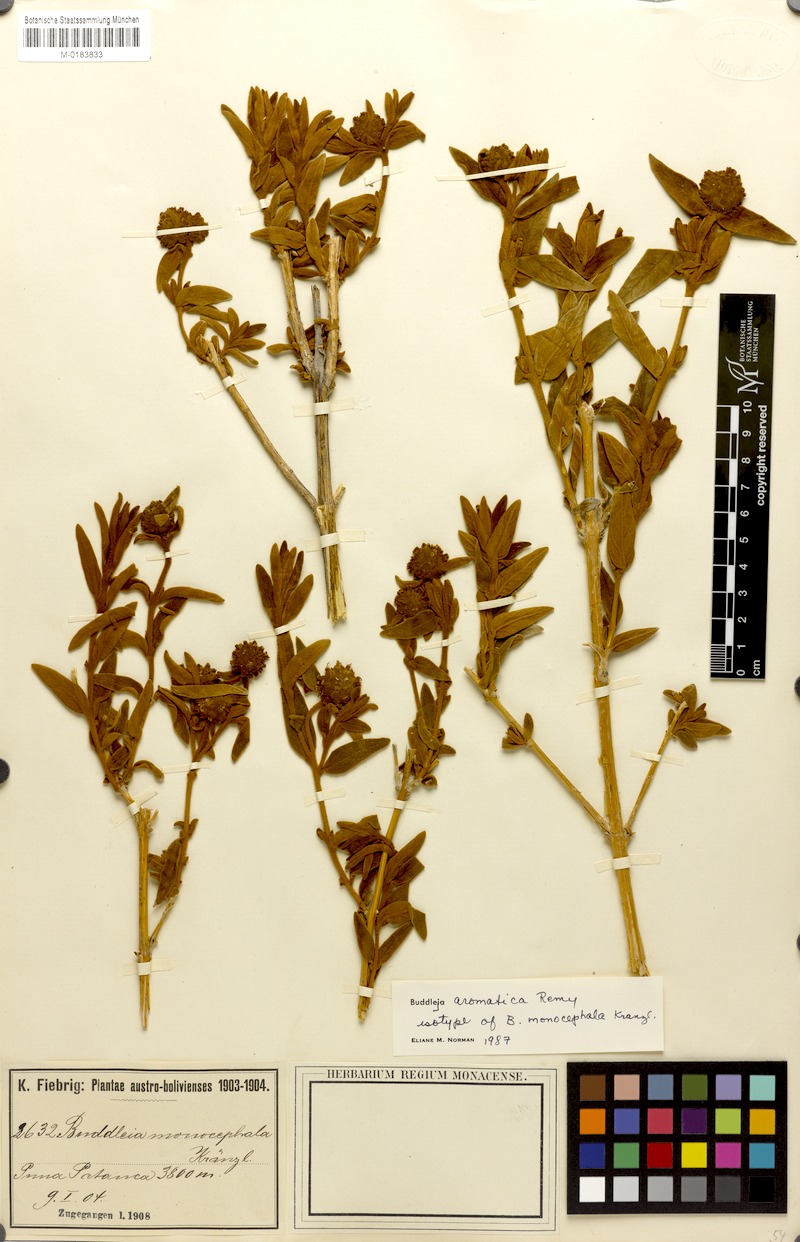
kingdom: Plantae
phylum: Tracheophyta
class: Magnoliopsida
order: Lamiales
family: Scrophulariaceae
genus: Buddleja
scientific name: Buddleja aromatica
